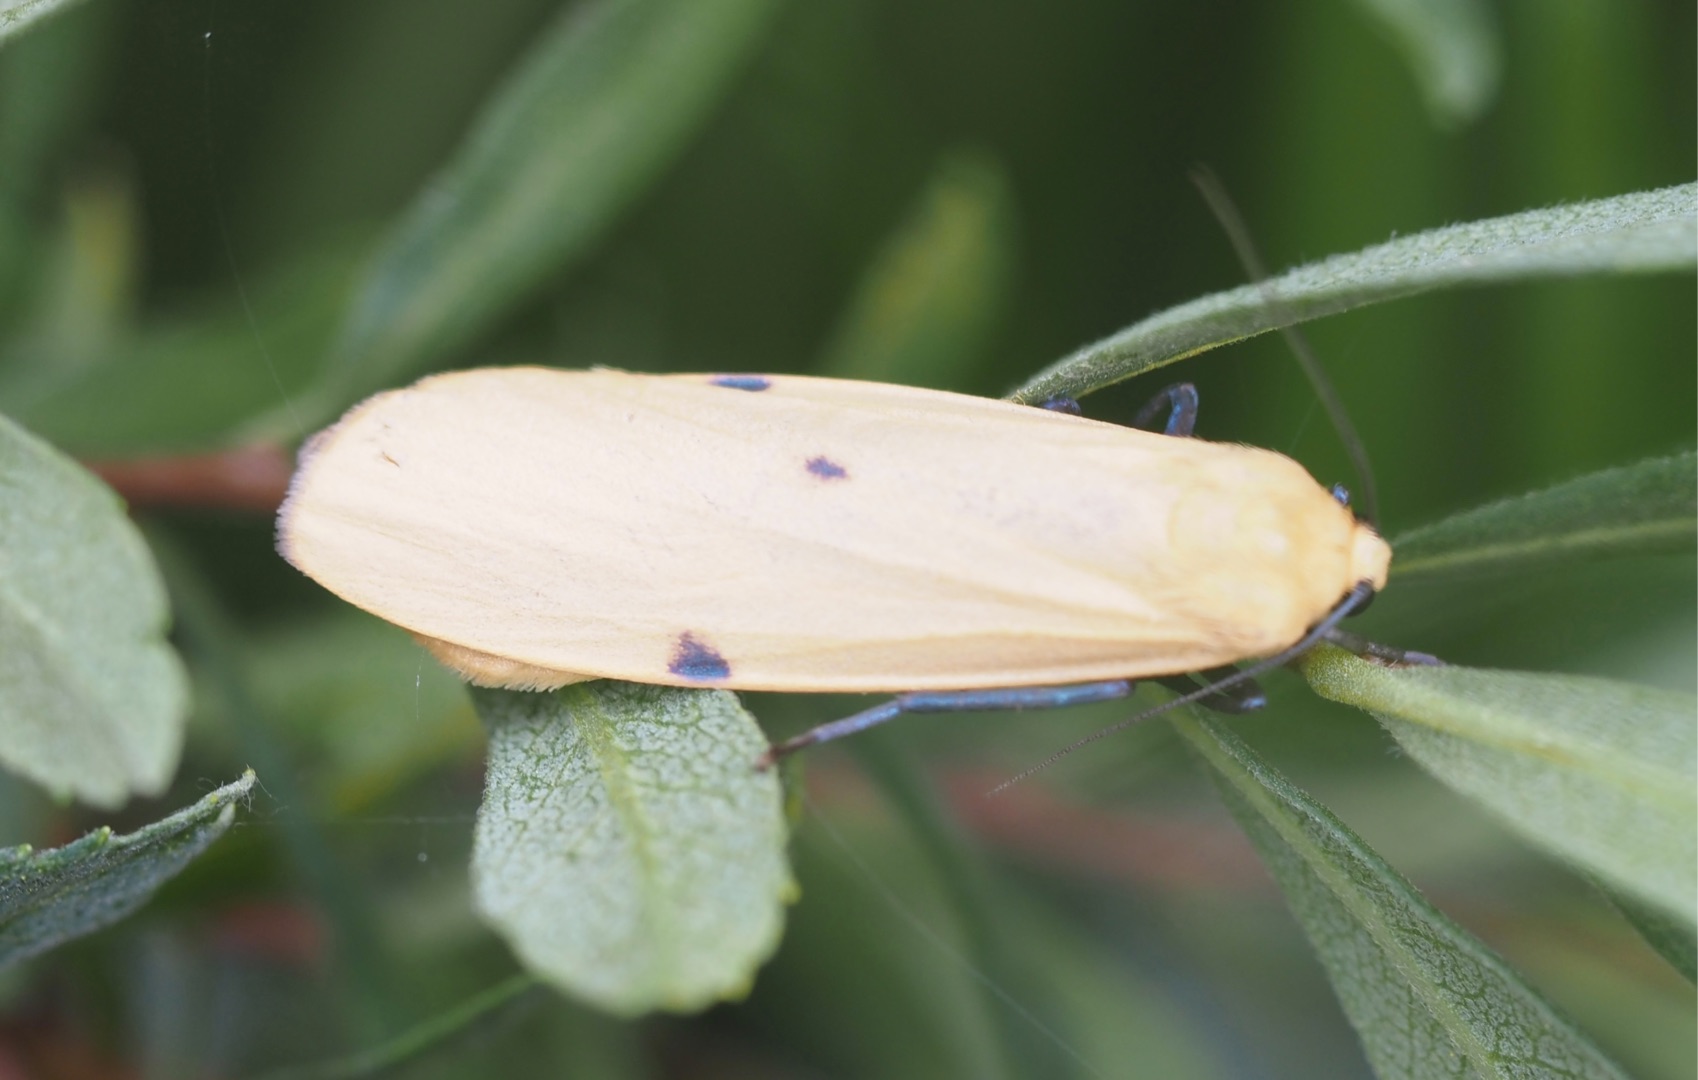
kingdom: Animalia
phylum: Arthropoda
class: Insecta
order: Lepidoptera
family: Erebidae
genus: Lithosia
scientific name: Lithosia quadra
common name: Stor lavspinder
